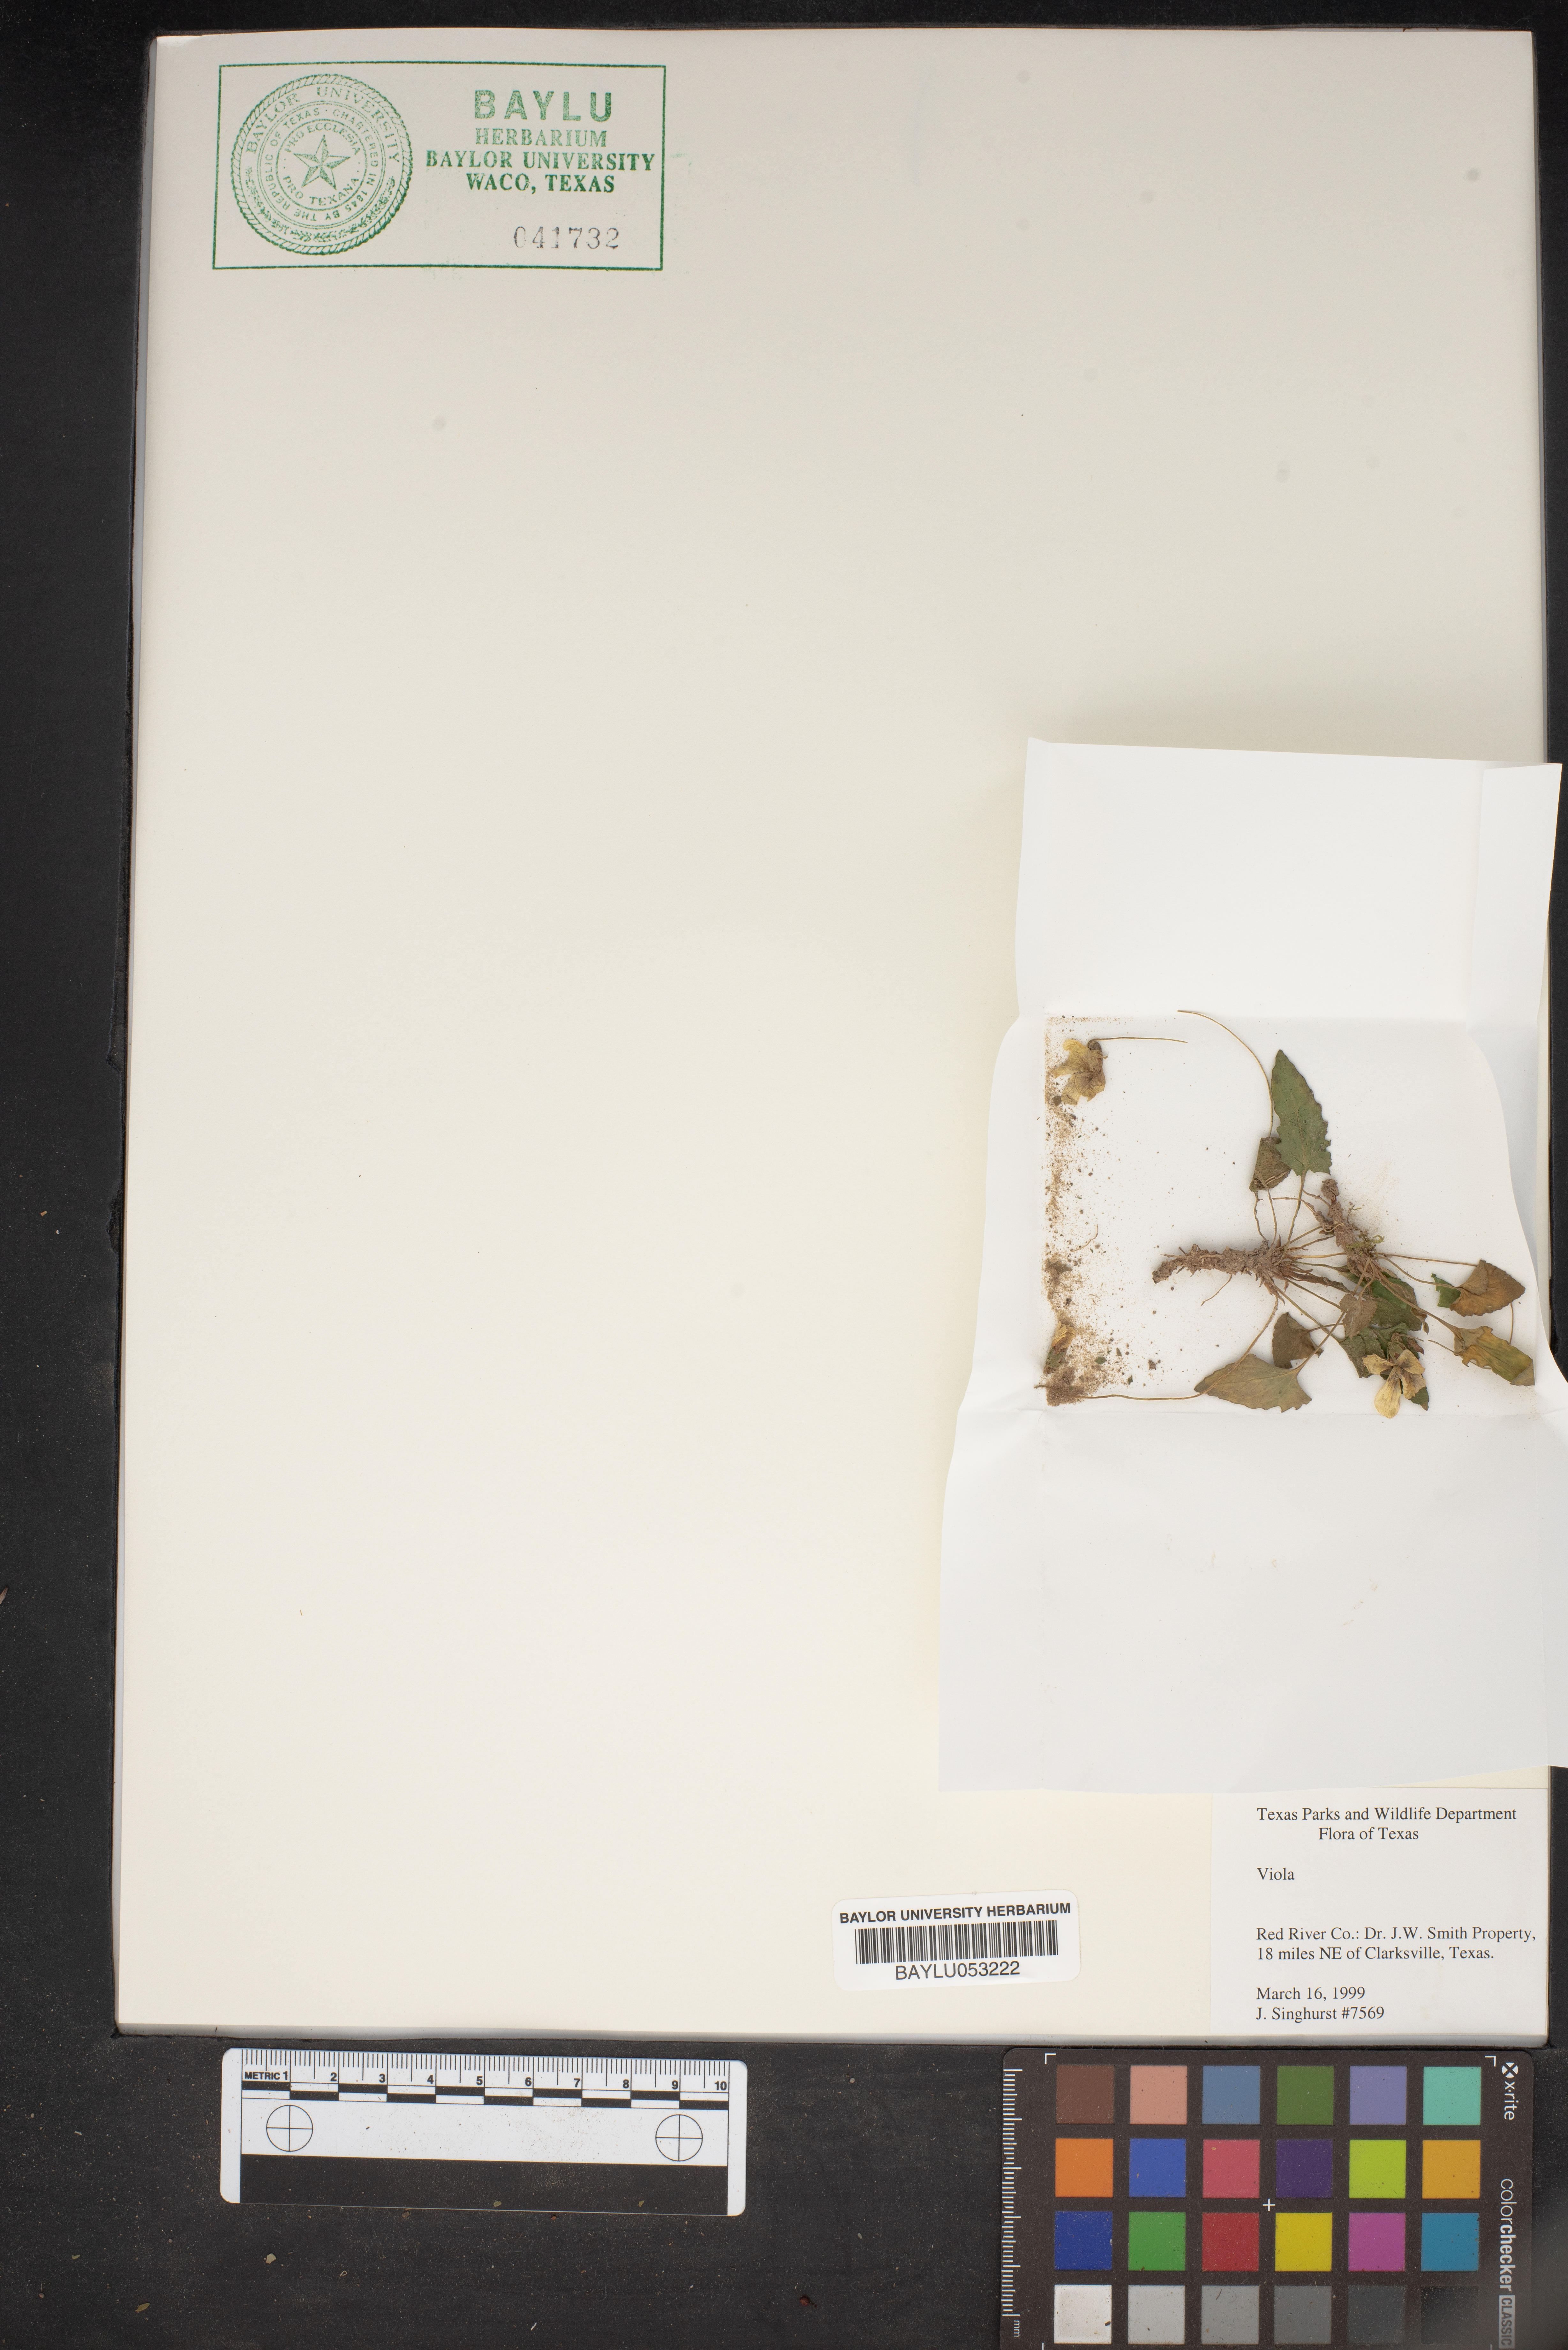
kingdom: Plantae
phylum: Tracheophyta
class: Magnoliopsida
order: Malpighiales
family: Violaceae
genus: Viola
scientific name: Viola
